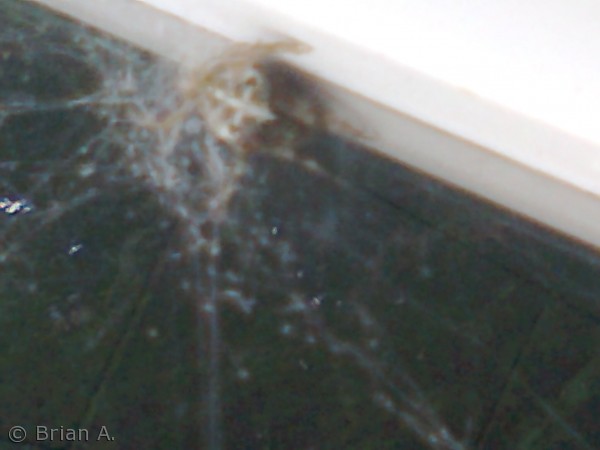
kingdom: Animalia
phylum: Arthropoda
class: Arachnida
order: Araneae
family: Araneidae
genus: Araneus
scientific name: Araneus diadematus
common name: Korsedderkop
